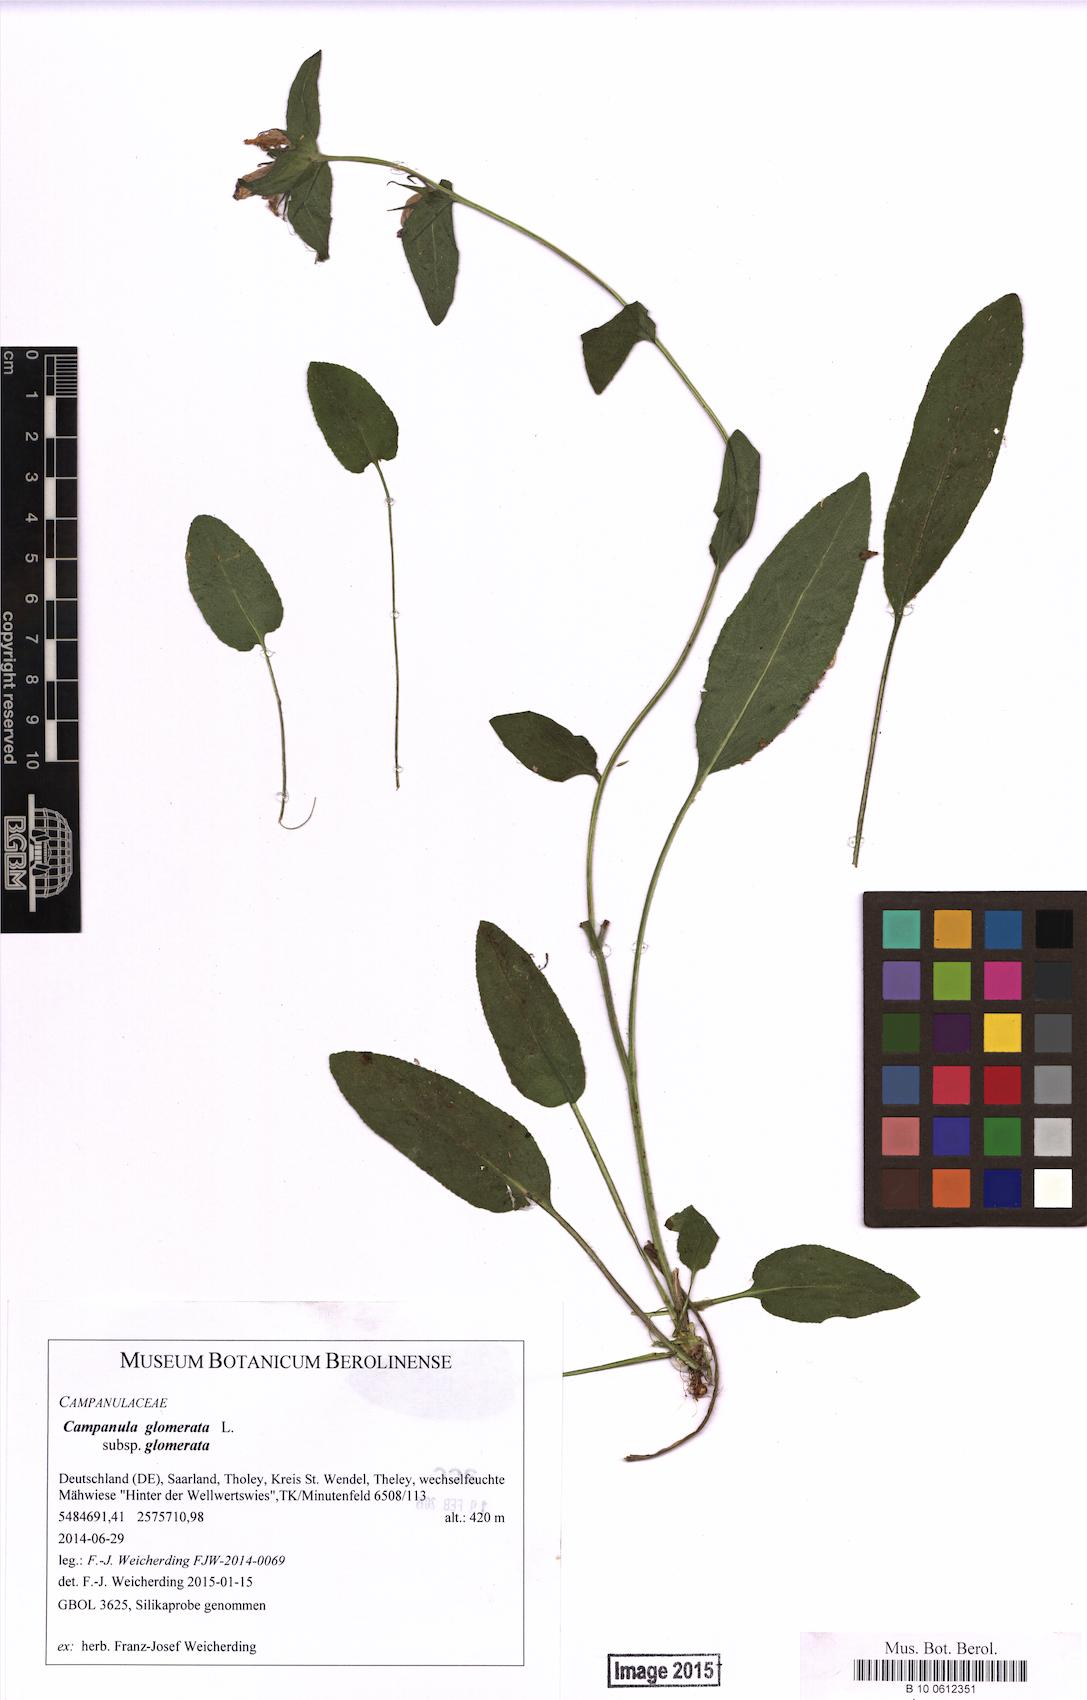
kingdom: Plantae
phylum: Tracheophyta
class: Magnoliopsida
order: Asterales
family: Campanulaceae
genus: Campanula
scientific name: Campanula glomerata
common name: Clustered bellflower
